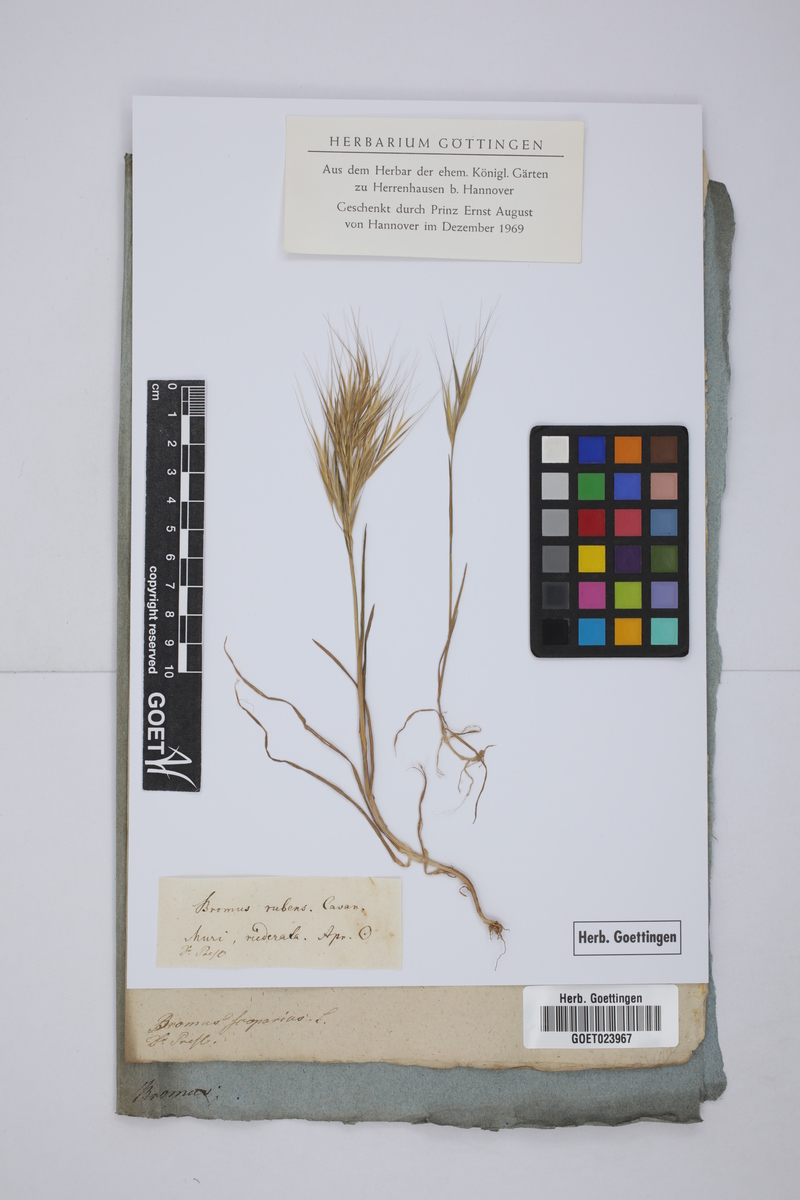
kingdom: Plantae
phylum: Tracheophyta
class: Liliopsida
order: Poales
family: Poaceae
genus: Triticum
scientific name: Triticum Bromus rubens
